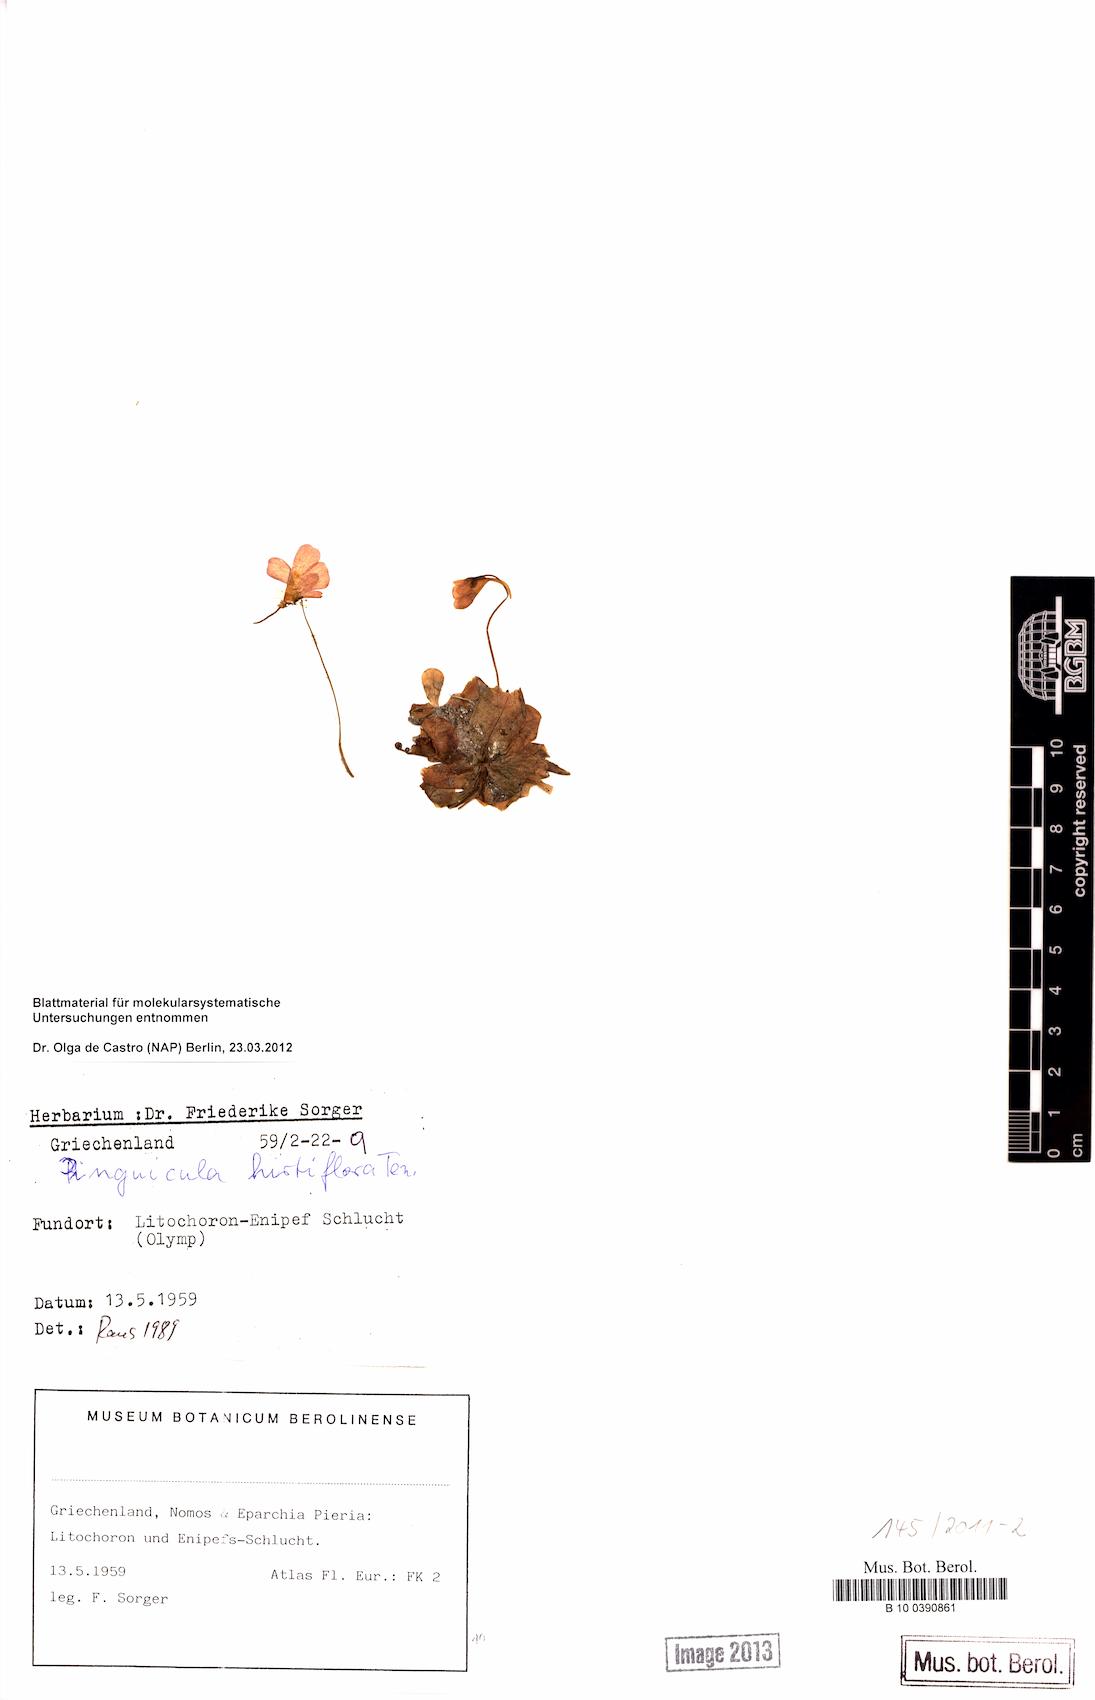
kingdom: Plantae
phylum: Tracheophyta
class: Magnoliopsida
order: Lamiales
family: Lentibulariaceae
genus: Pinguicula
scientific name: Pinguicula crystallina
